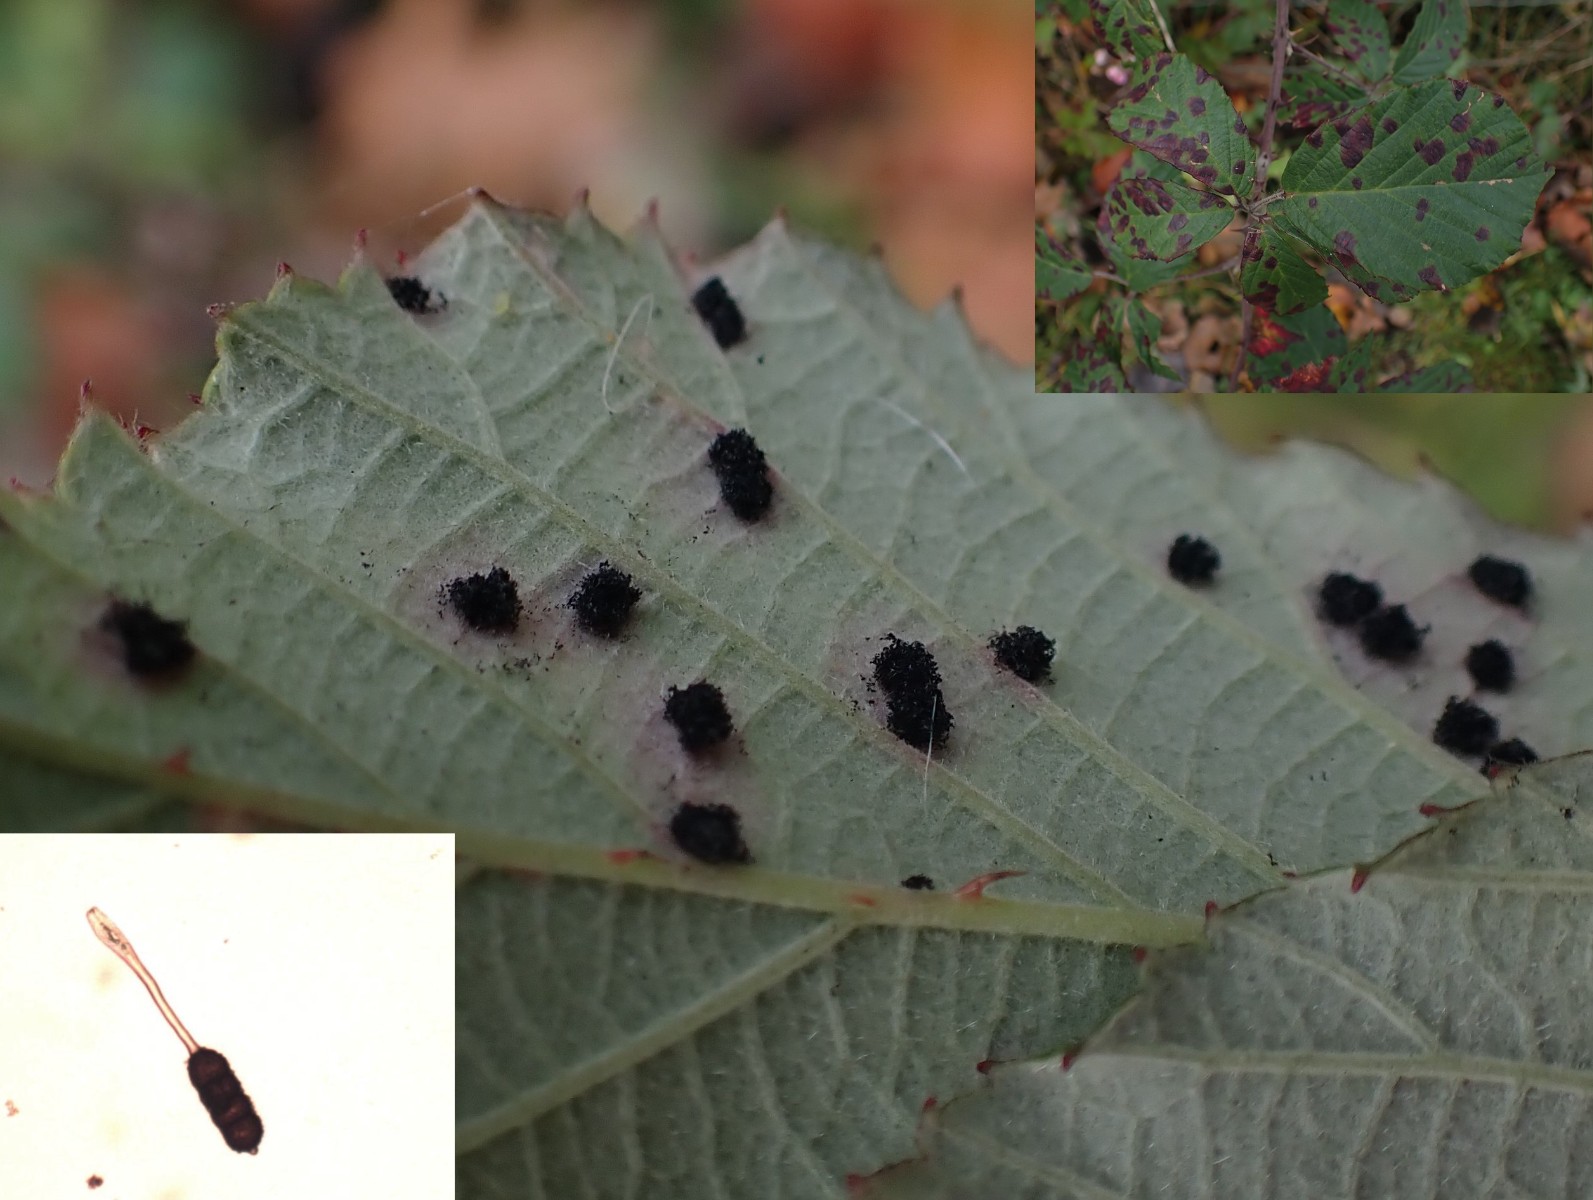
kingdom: Fungi
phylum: Basidiomycota
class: Pucciniomycetes
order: Pucciniales
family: Phragmidiaceae
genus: Phragmidium
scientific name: Phragmidium violaceum
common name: violet flercellerust
